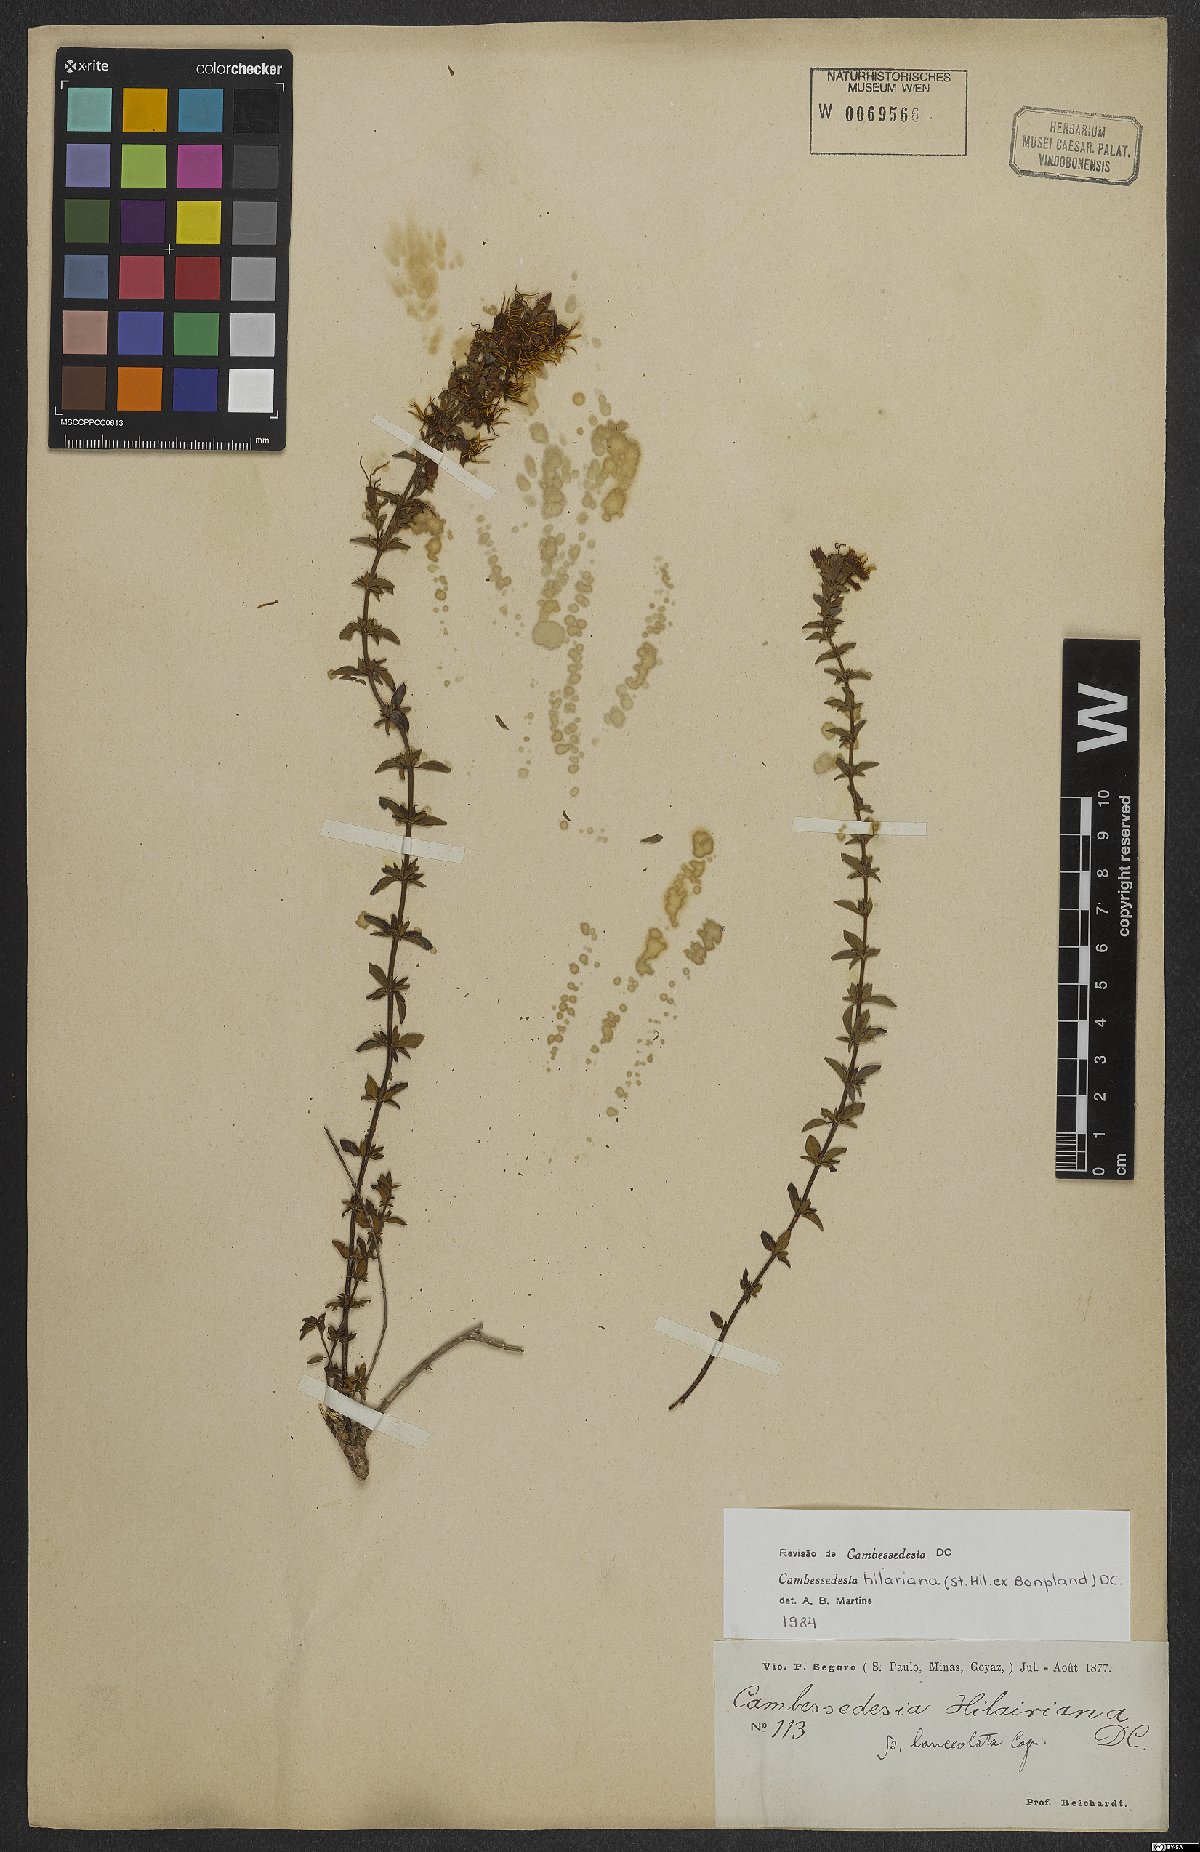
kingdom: Plantae
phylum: Tracheophyta
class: Magnoliopsida
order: Myrtales
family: Melastomataceae
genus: Cambessedesia
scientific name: Cambessedesia hilariana
